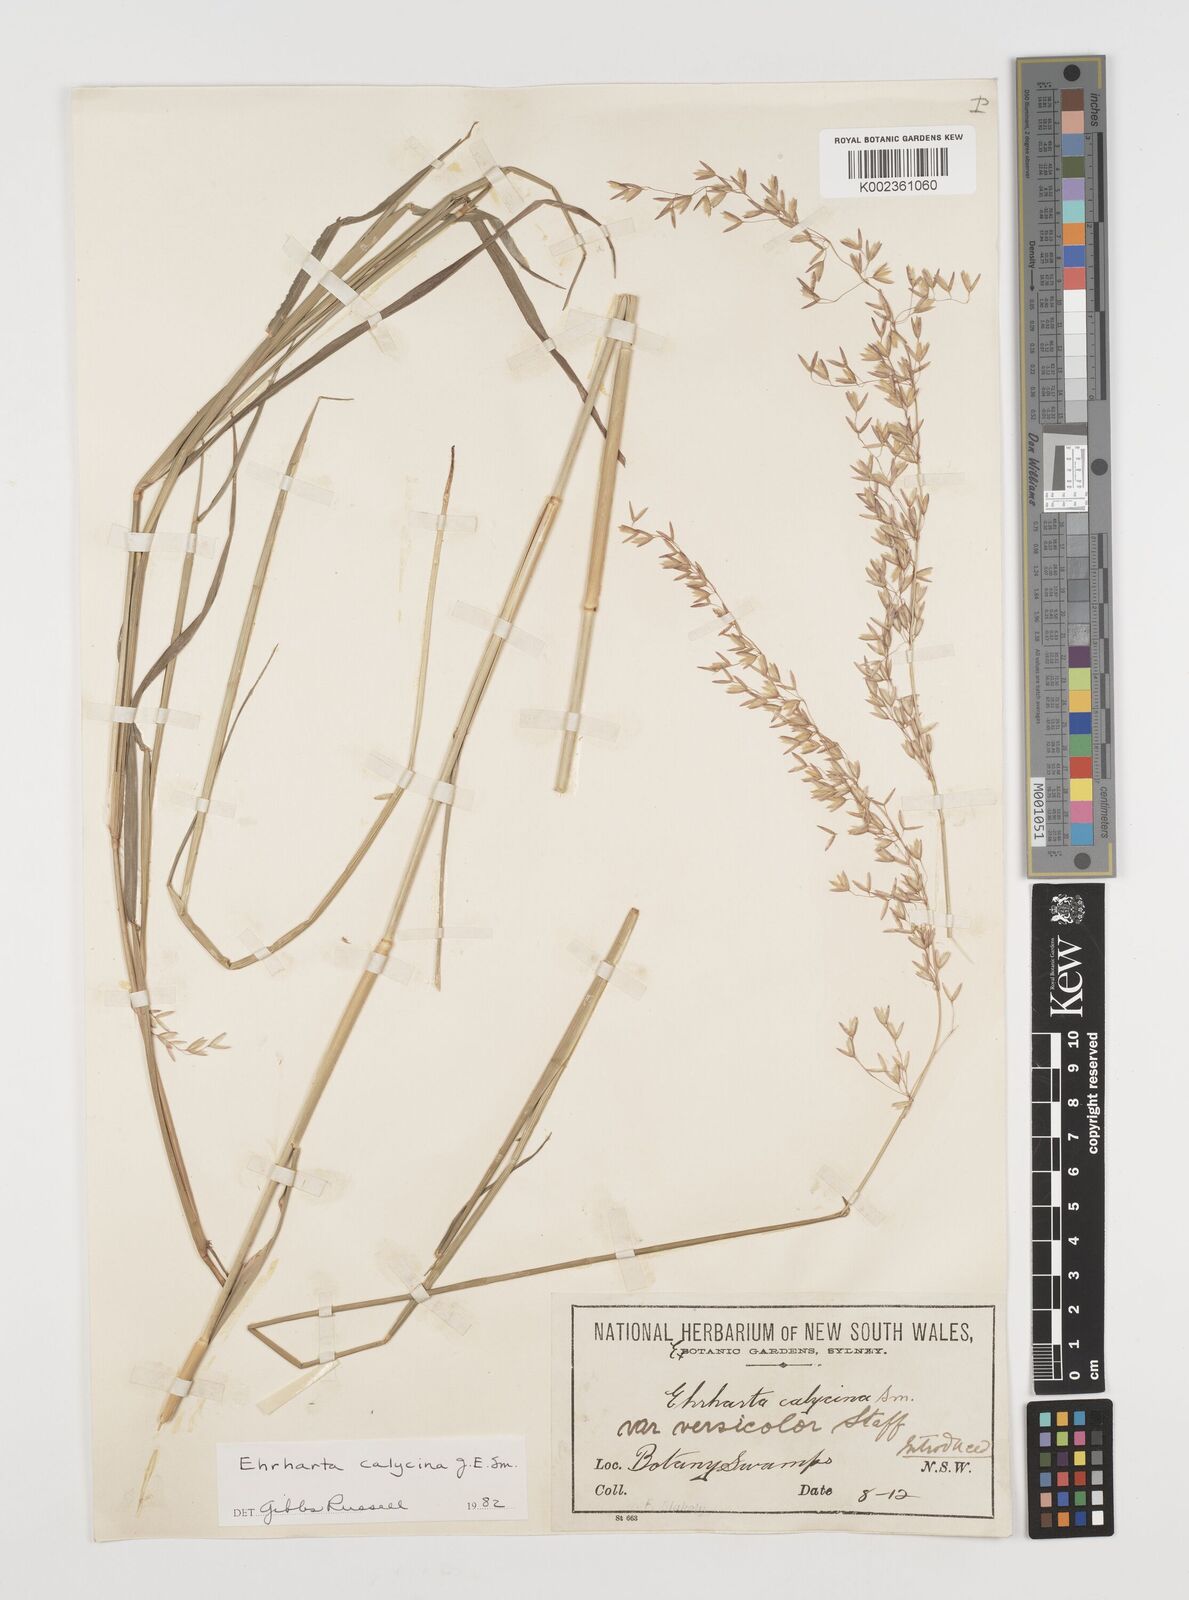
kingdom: Plantae
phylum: Tracheophyta
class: Liliopsida
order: Poales
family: Poaceae
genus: Ehrharta
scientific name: Ehrharta calycina
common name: Perennial veldtgrass
